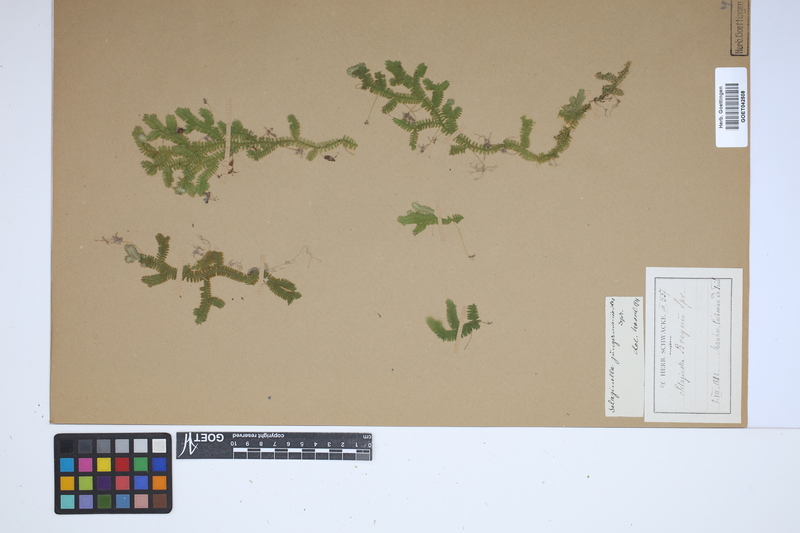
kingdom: Plantae
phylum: Tracheophyta
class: Lycopodiopsida
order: Selaginellales
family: Selaginellaceae
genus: Selaginella
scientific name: Selaginella jungermannioides
